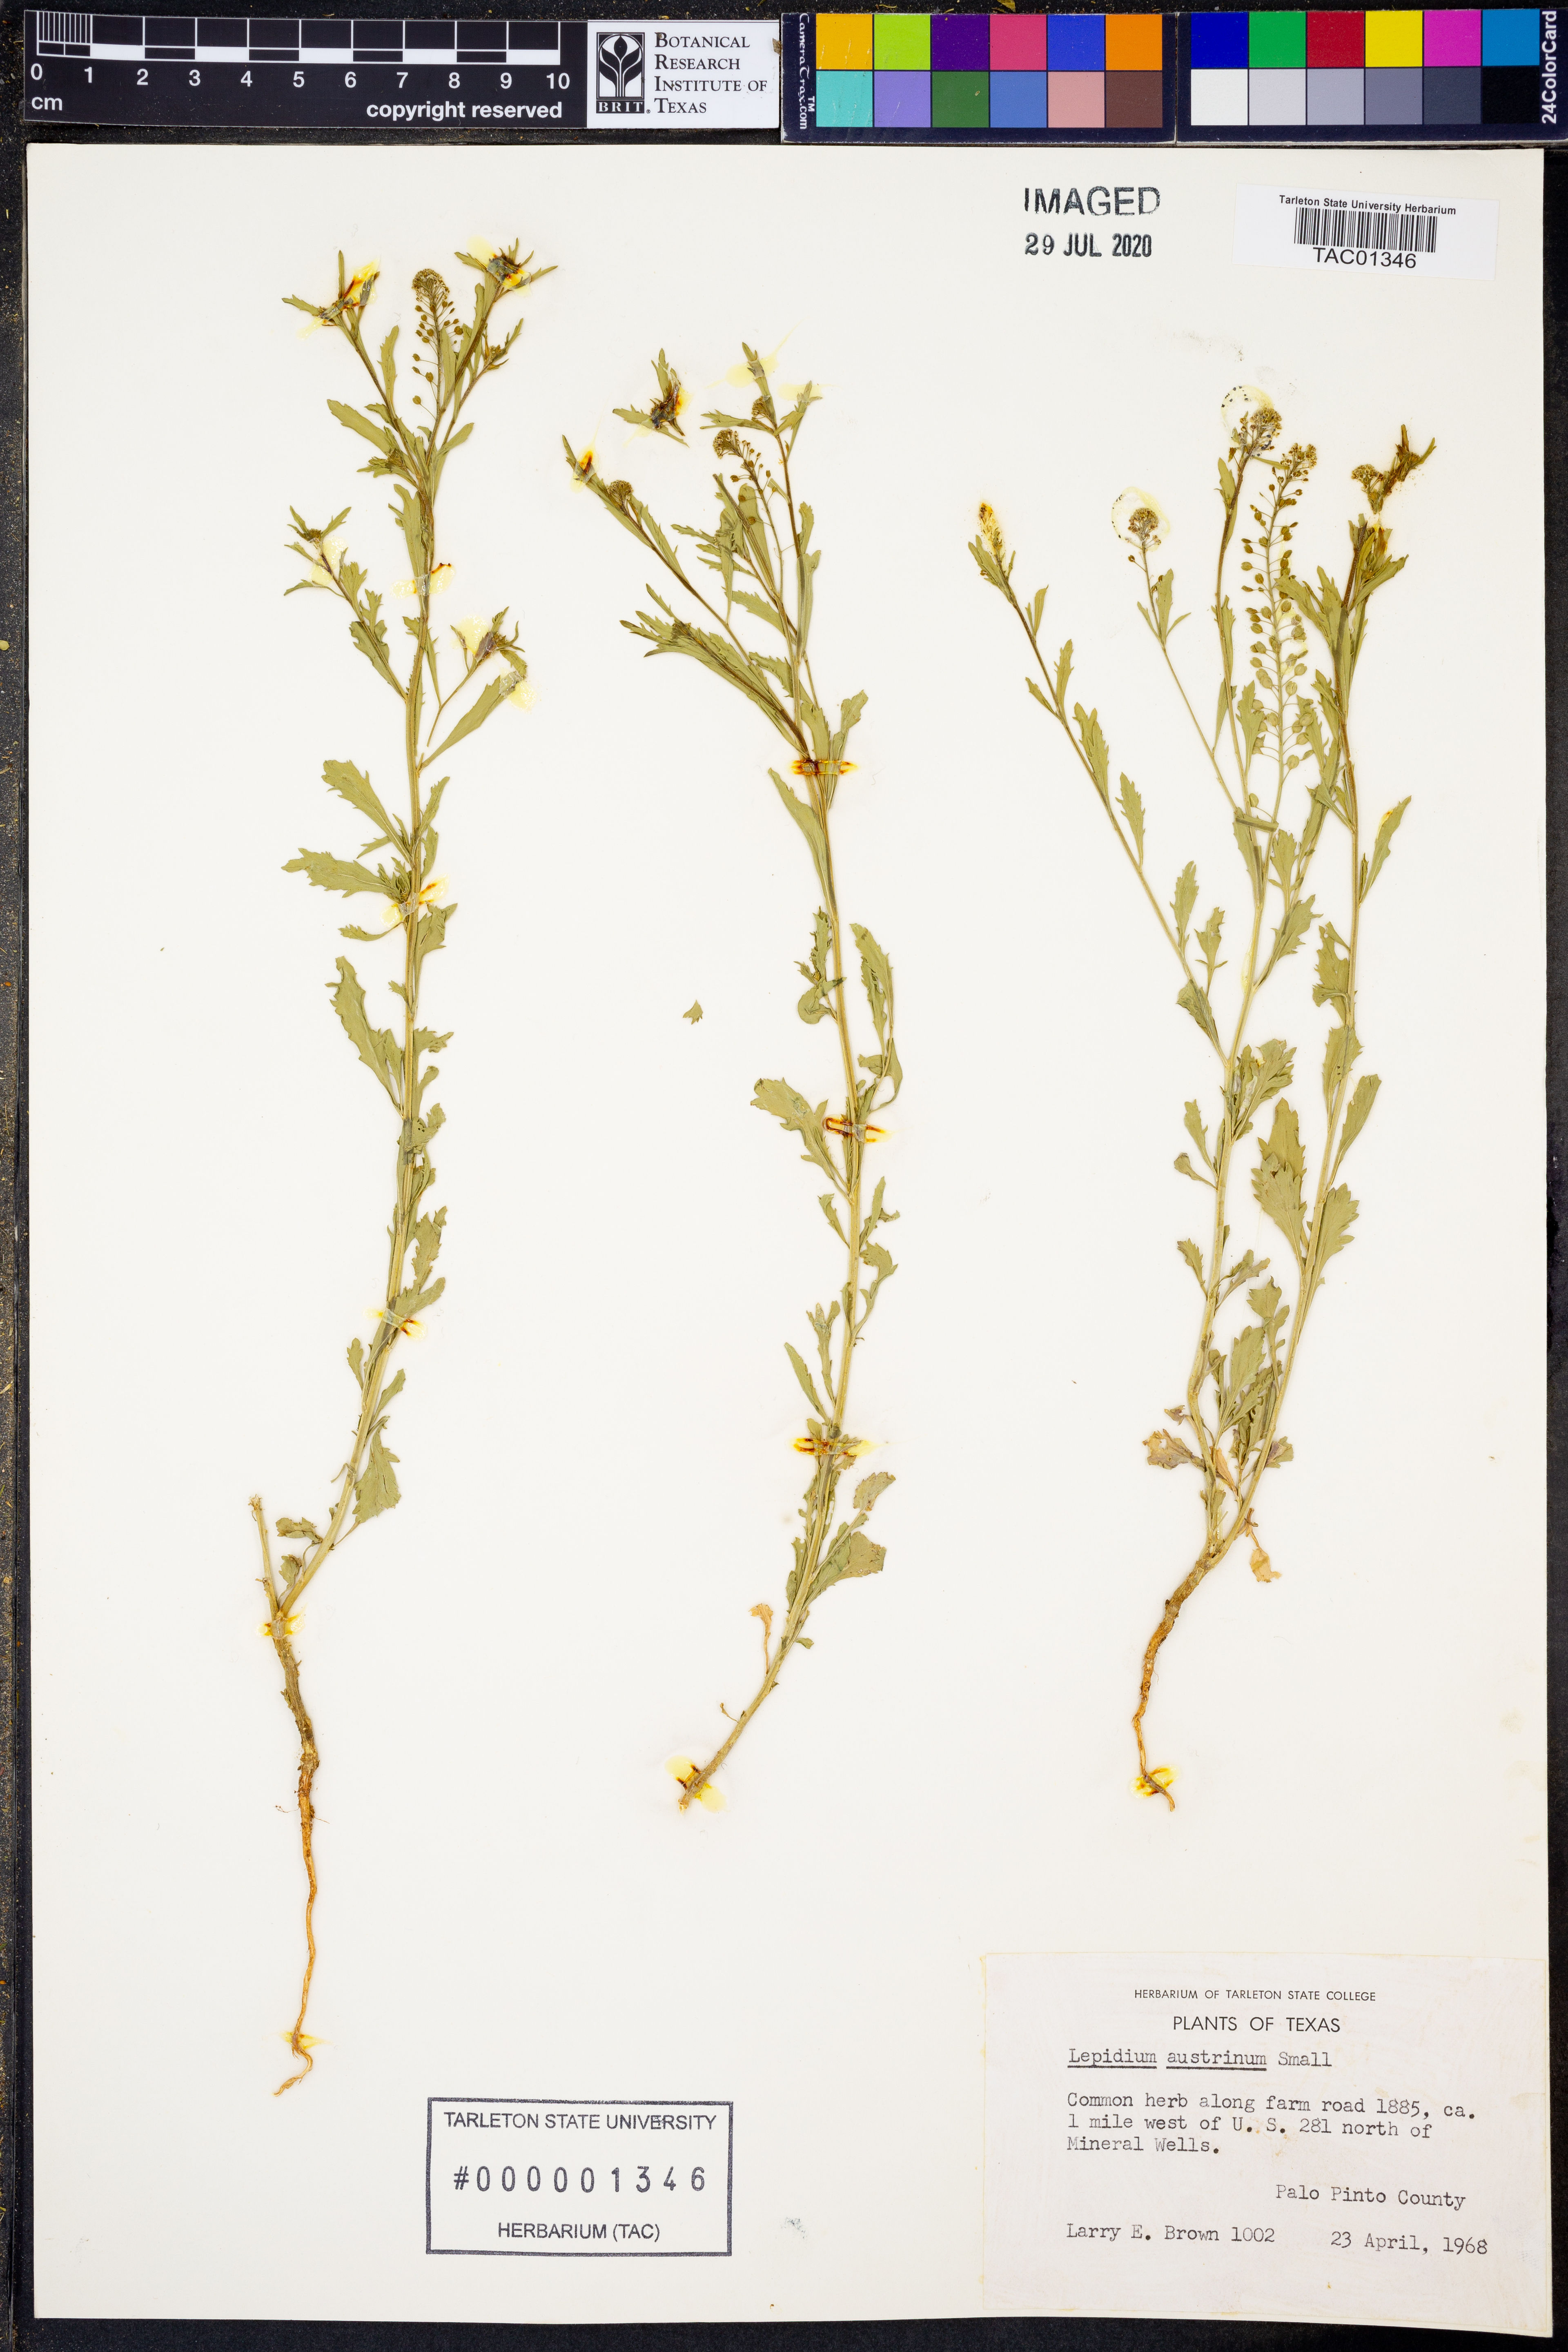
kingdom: Plantae
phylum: Tracheophyta
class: Magnoliopsida
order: Brassicales
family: Brassicaceae
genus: Lepidium
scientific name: Lepidium austrinum
